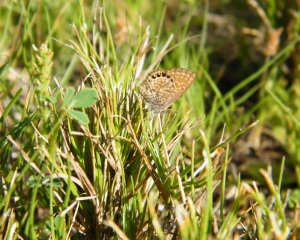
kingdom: Animalia
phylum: Arthropoda
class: Insecta
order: Lepidoptera
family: Lycaenidae
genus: Brephidium
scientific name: Brephidium isophthalma
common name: Eastern Pygmy-Blue
